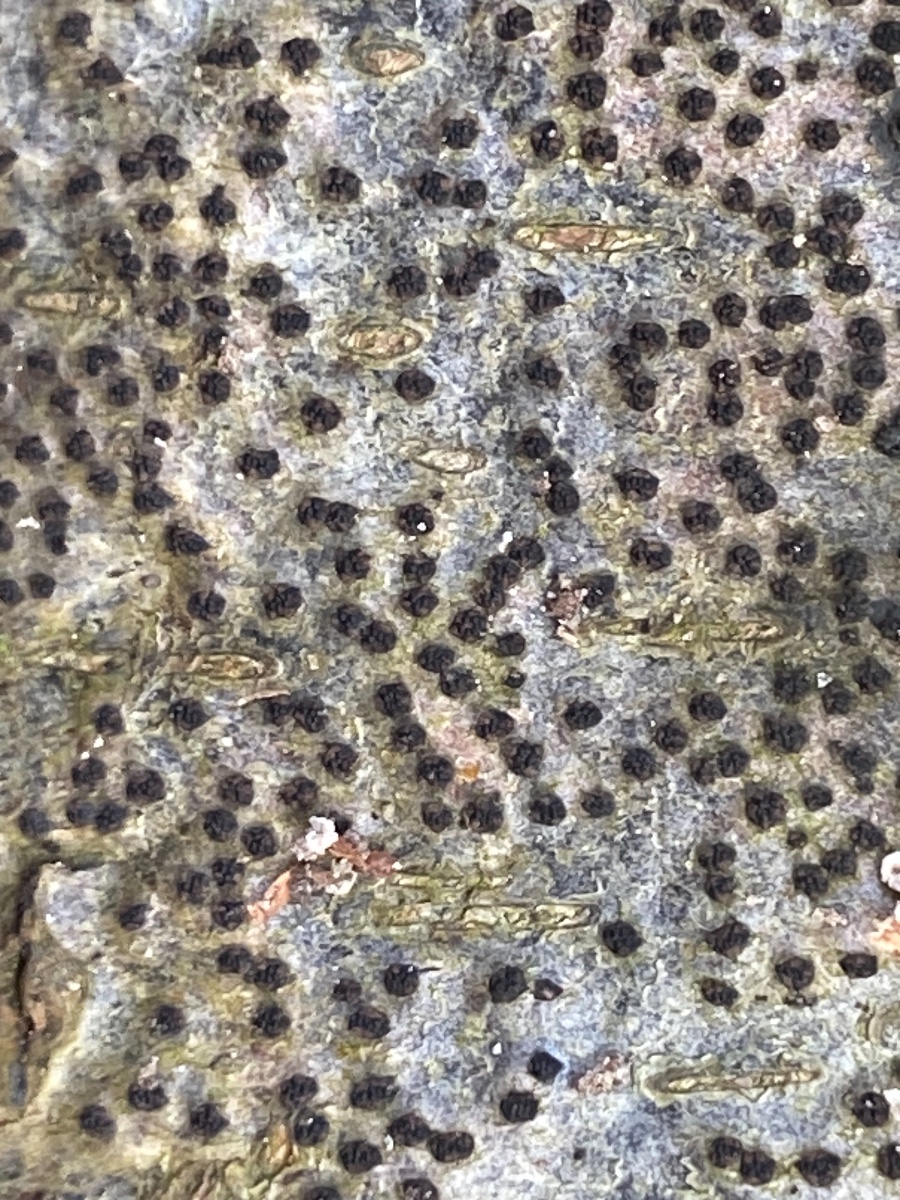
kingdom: Fungi
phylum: Ascomycota
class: Sordariomycetes
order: Xylariales
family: Diatrypaceae
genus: Eutypella
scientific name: Eutypella quaternata
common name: bøge-korsprik
